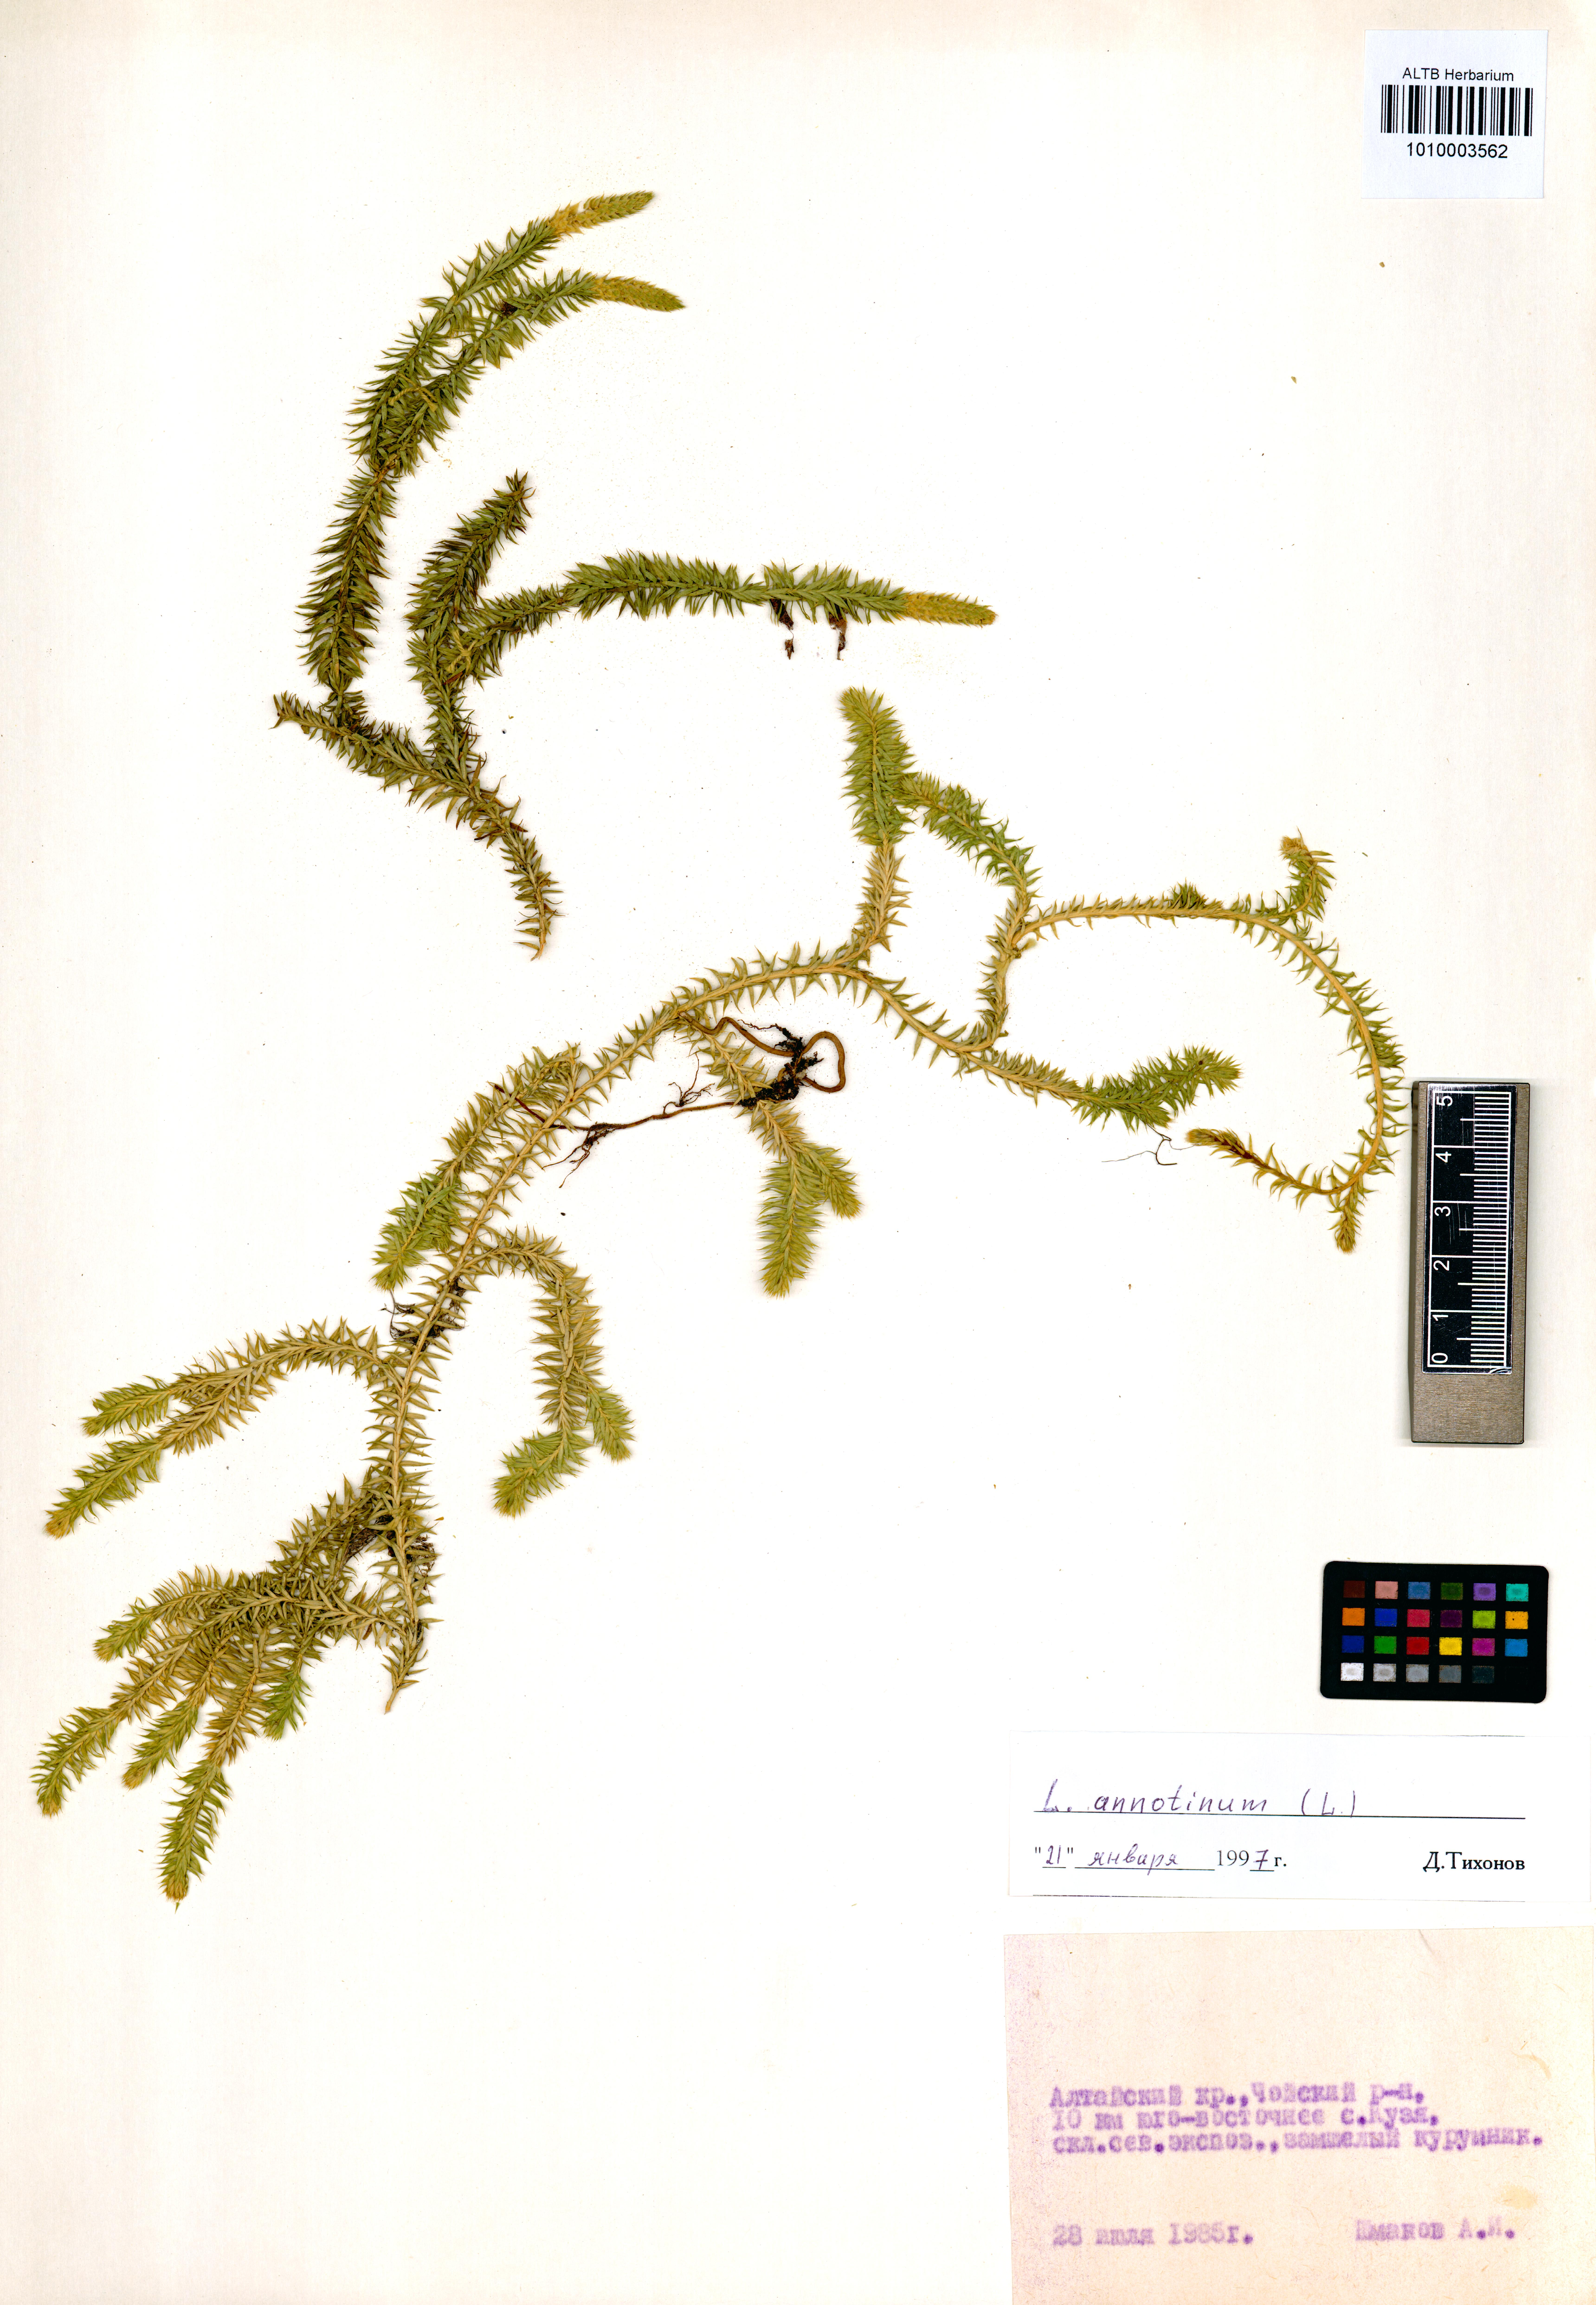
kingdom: Plantae
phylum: Tracheophyta
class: Lycopodiopsida
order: Lycopodiales
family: Lycopodiaceae
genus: Spinulum
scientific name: Spinulum annotinum
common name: Interrupted club-moss
